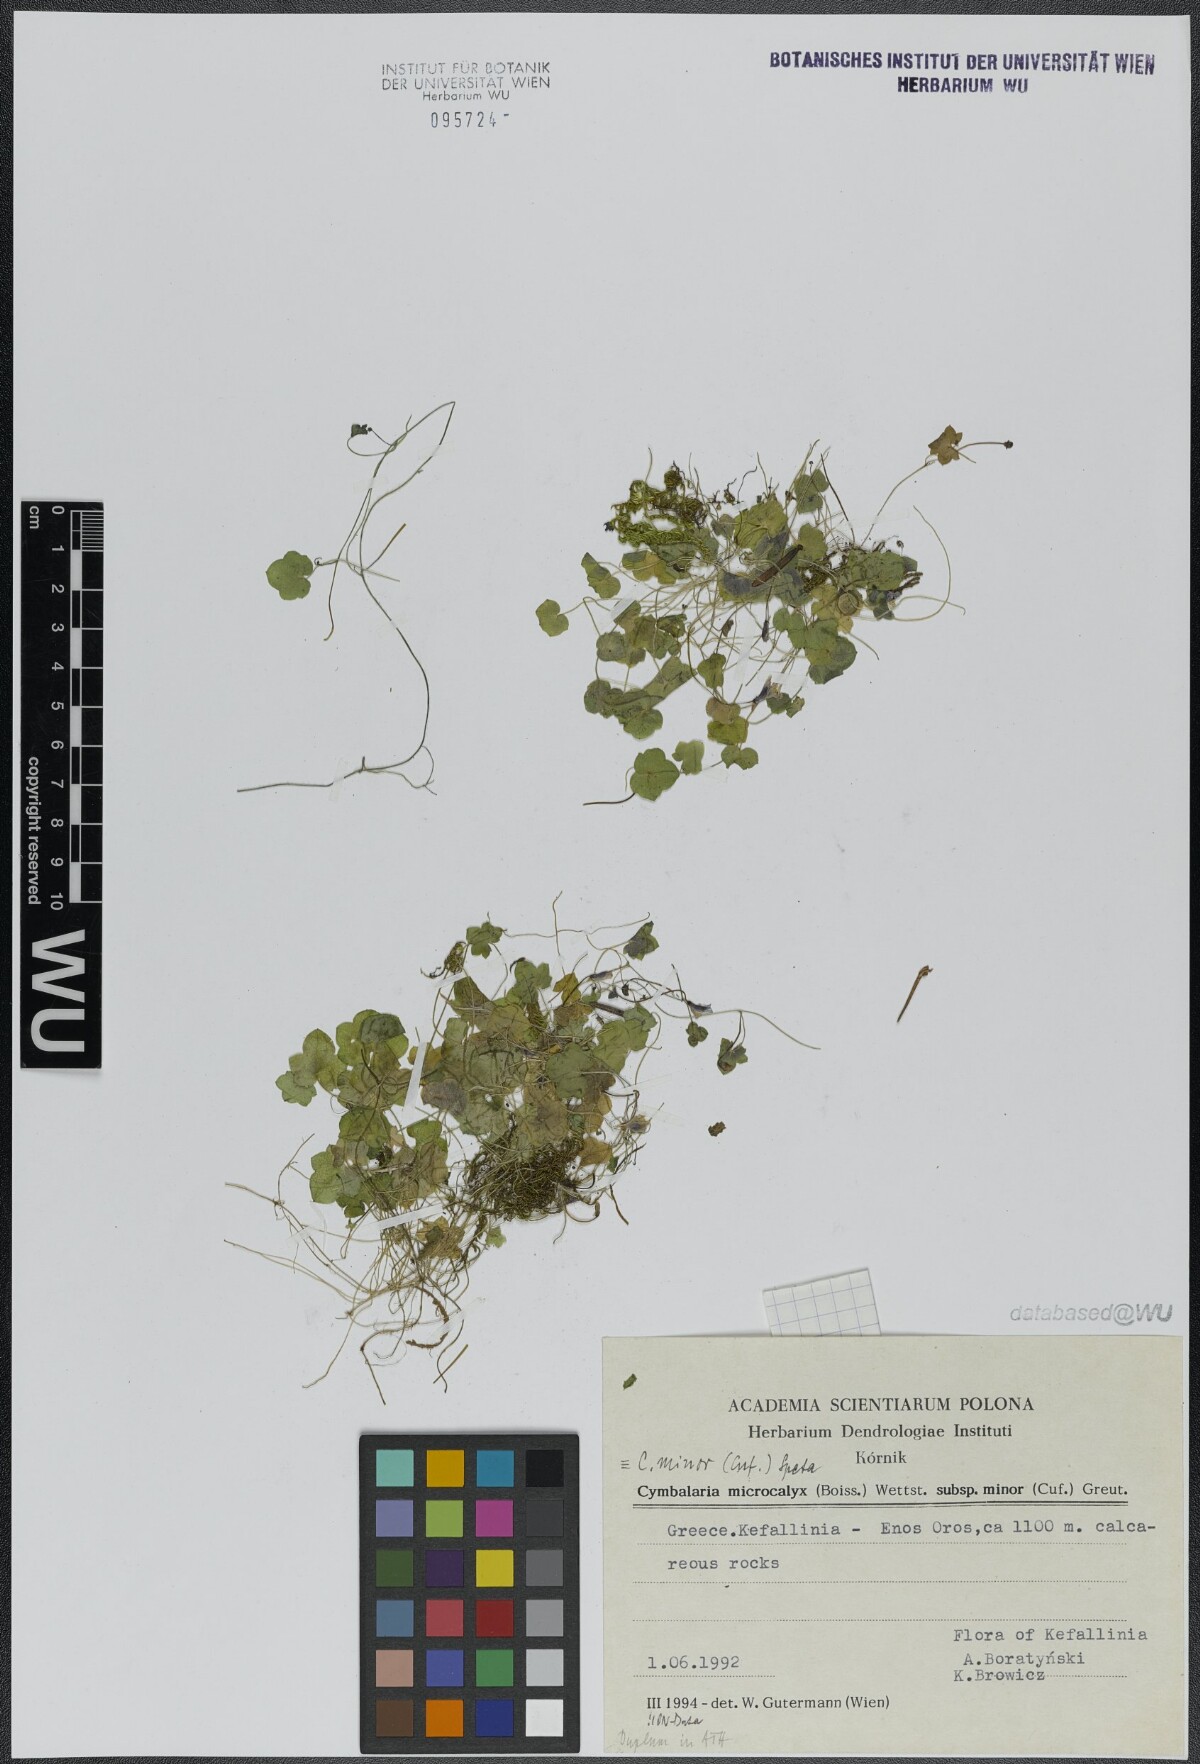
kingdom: Plantae
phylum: Tracheophyta
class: Magnoliopsida
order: Lamiales
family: Plantaginaceae
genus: Cymbalaria
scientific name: Cymbalaria minor
